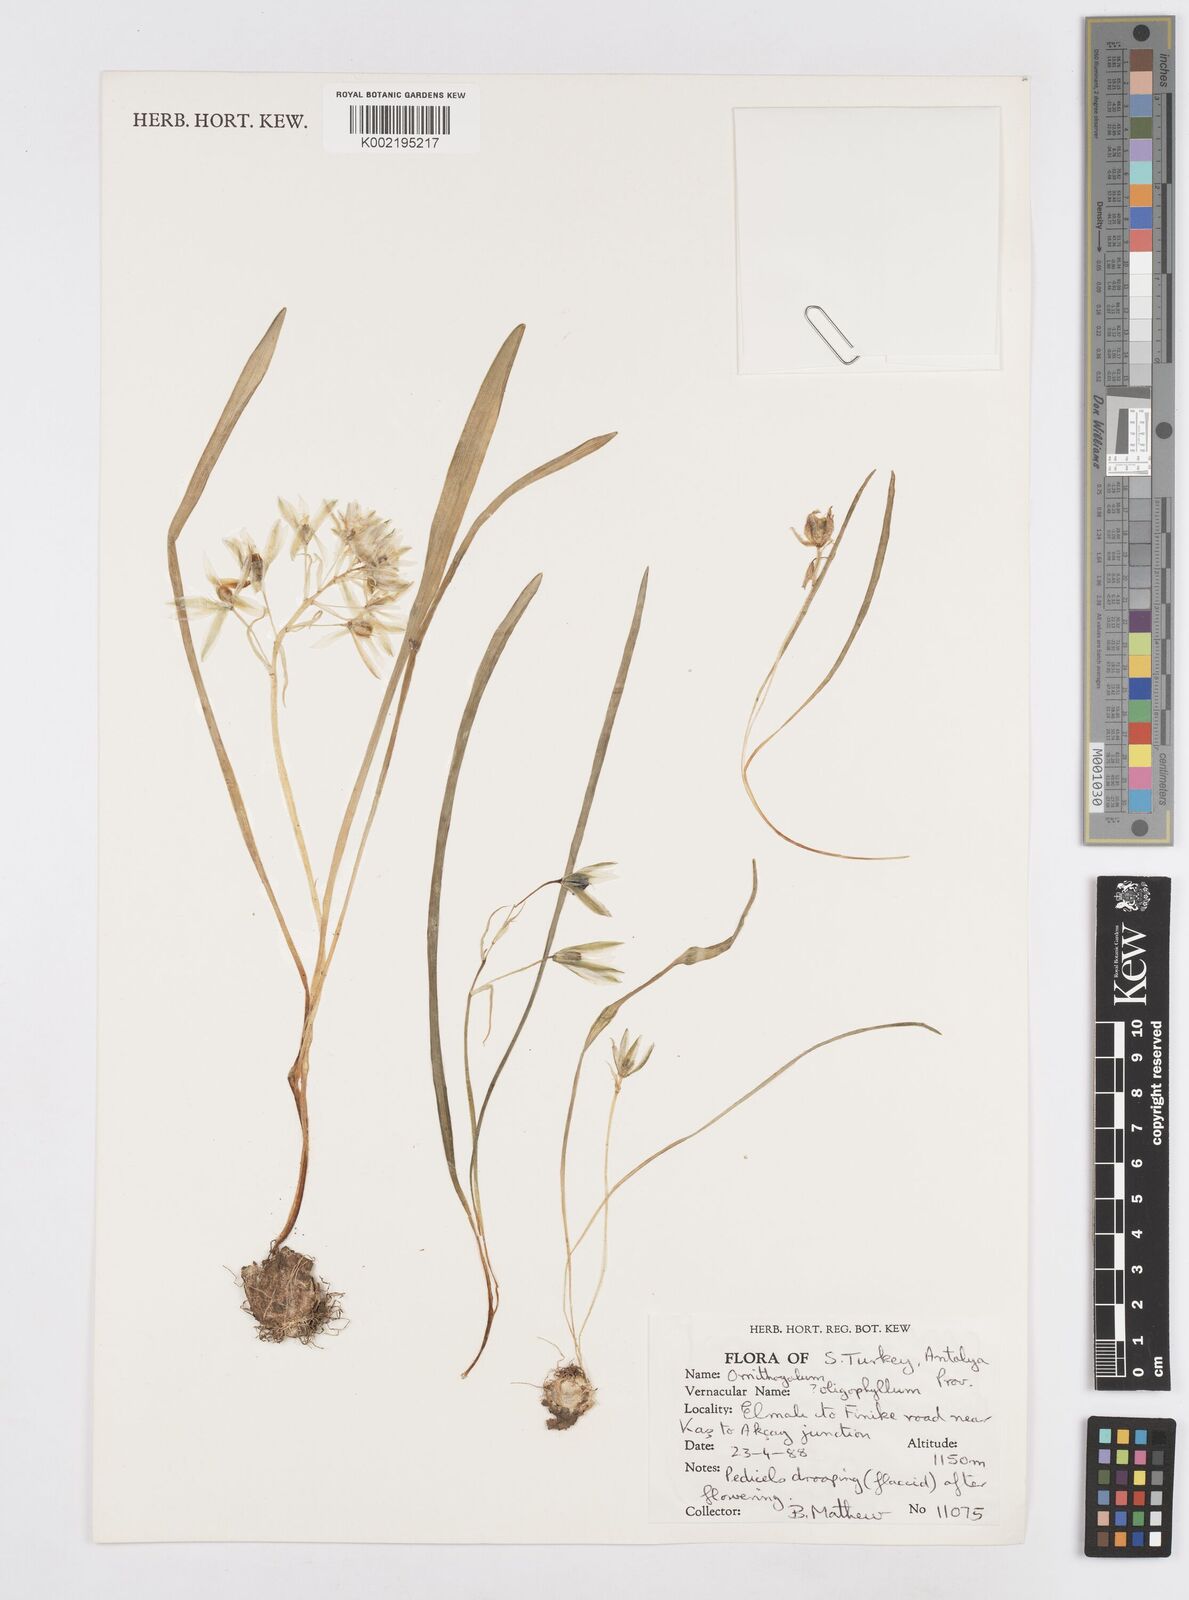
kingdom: Plantae
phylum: Tracheophyta
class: Liliopsida
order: Asparagales
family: Asparagaceae
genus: Ornithogalum
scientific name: Ornithogalum oligophyllum
